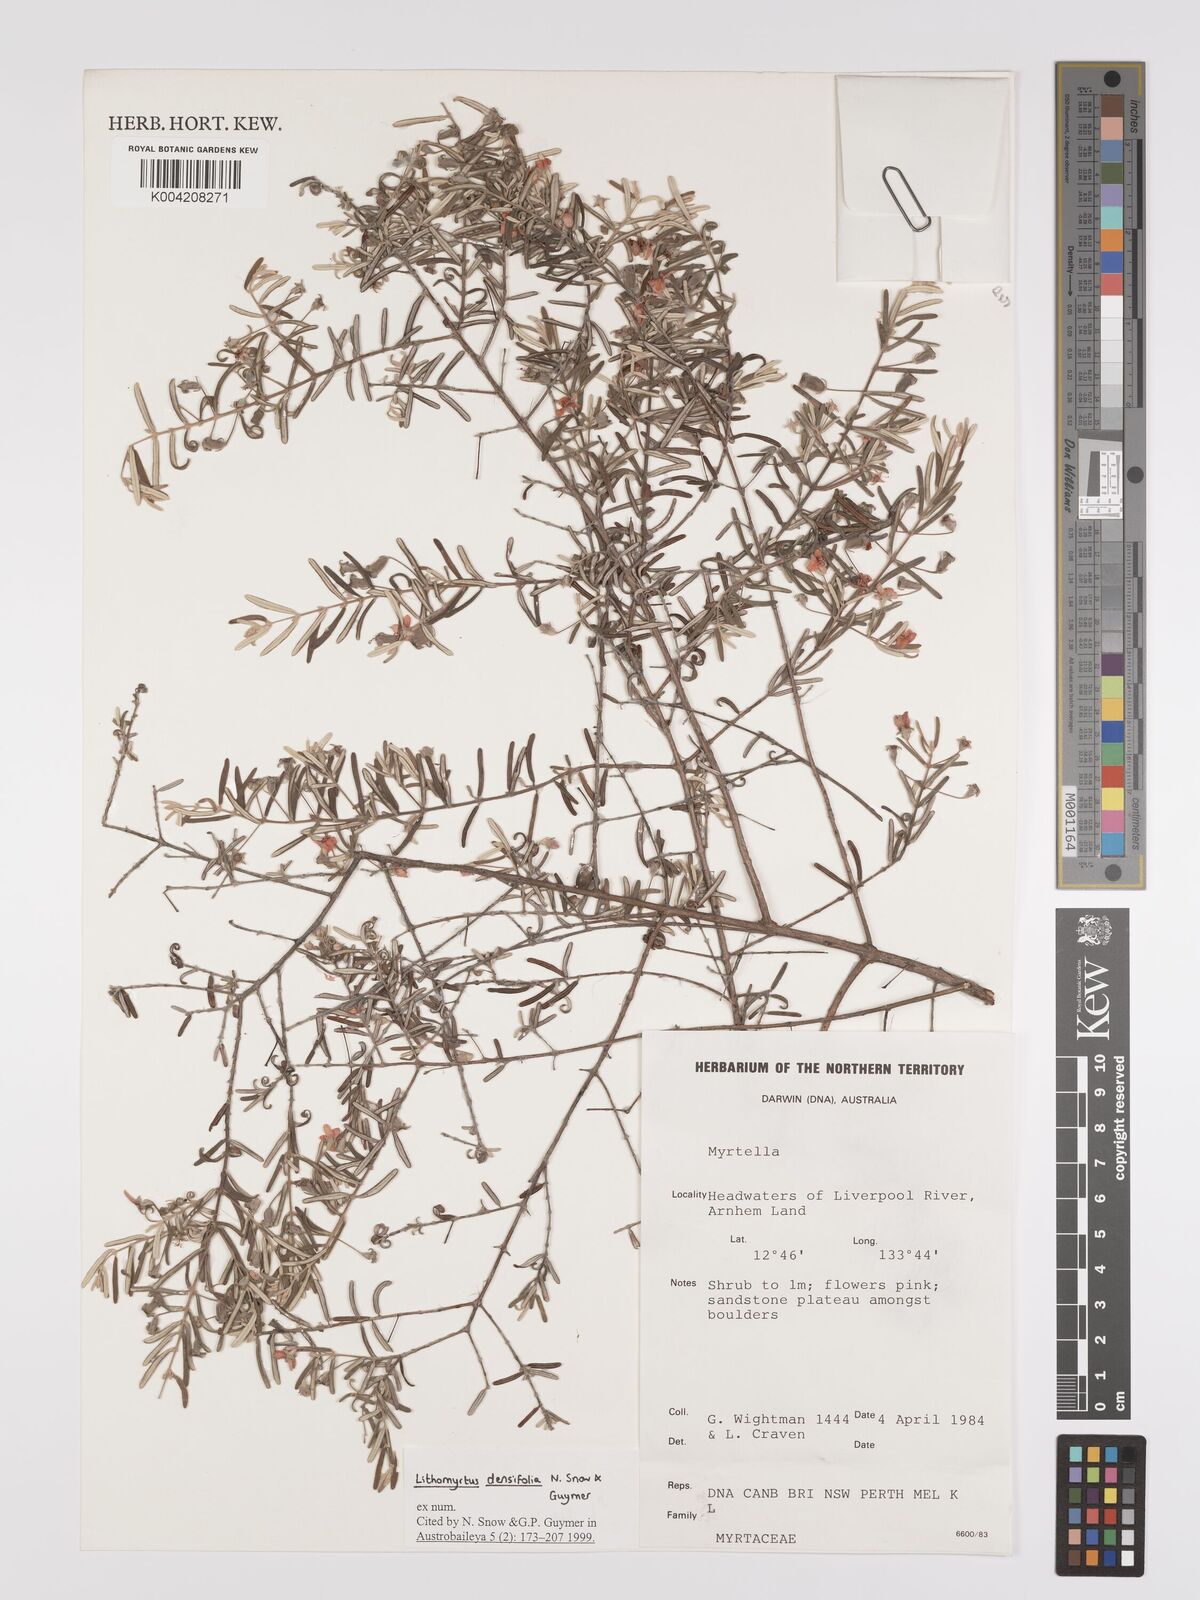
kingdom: Plantae
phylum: Tracheophyta
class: Magnoliopsida
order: Myrtales
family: Myrtaceae
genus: Lithomyrtus
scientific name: Lithomyrtus densifolia
